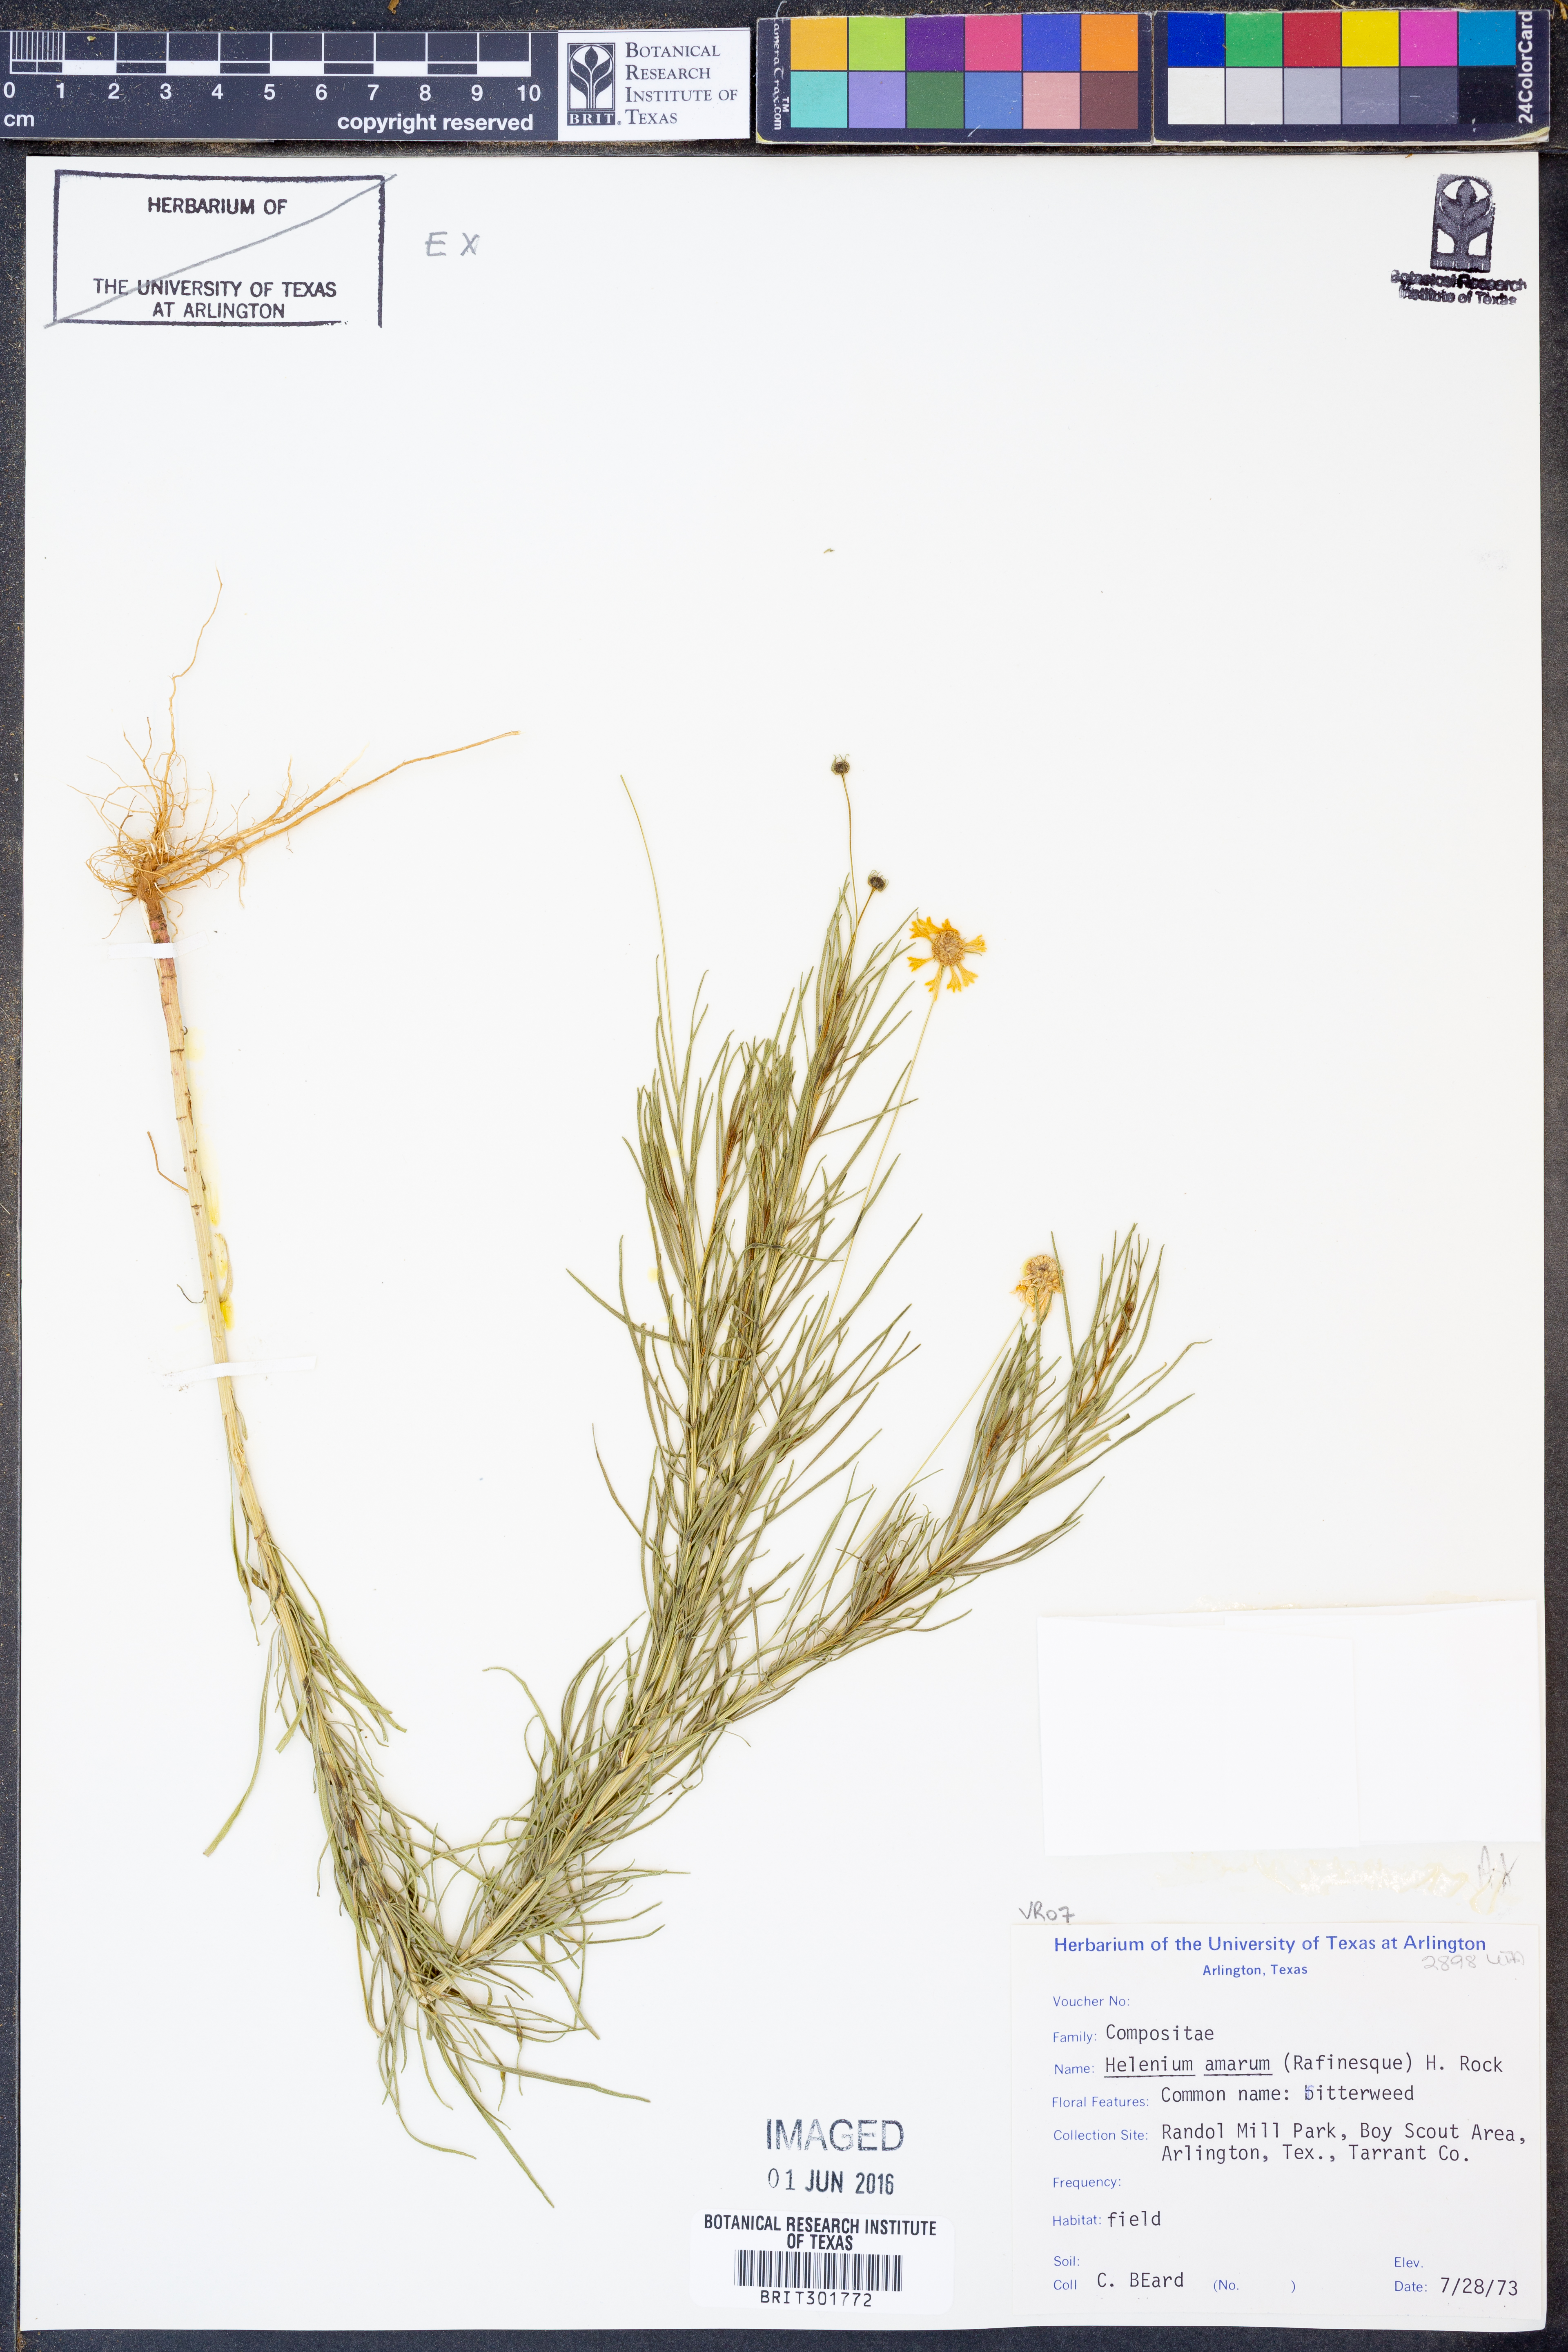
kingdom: Plantae
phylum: Tracheophyta
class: Magnoliopsida
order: Asterales
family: Asteraceae
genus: Helenium
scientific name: Helenium amarum
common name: Bitter sneezeweed
